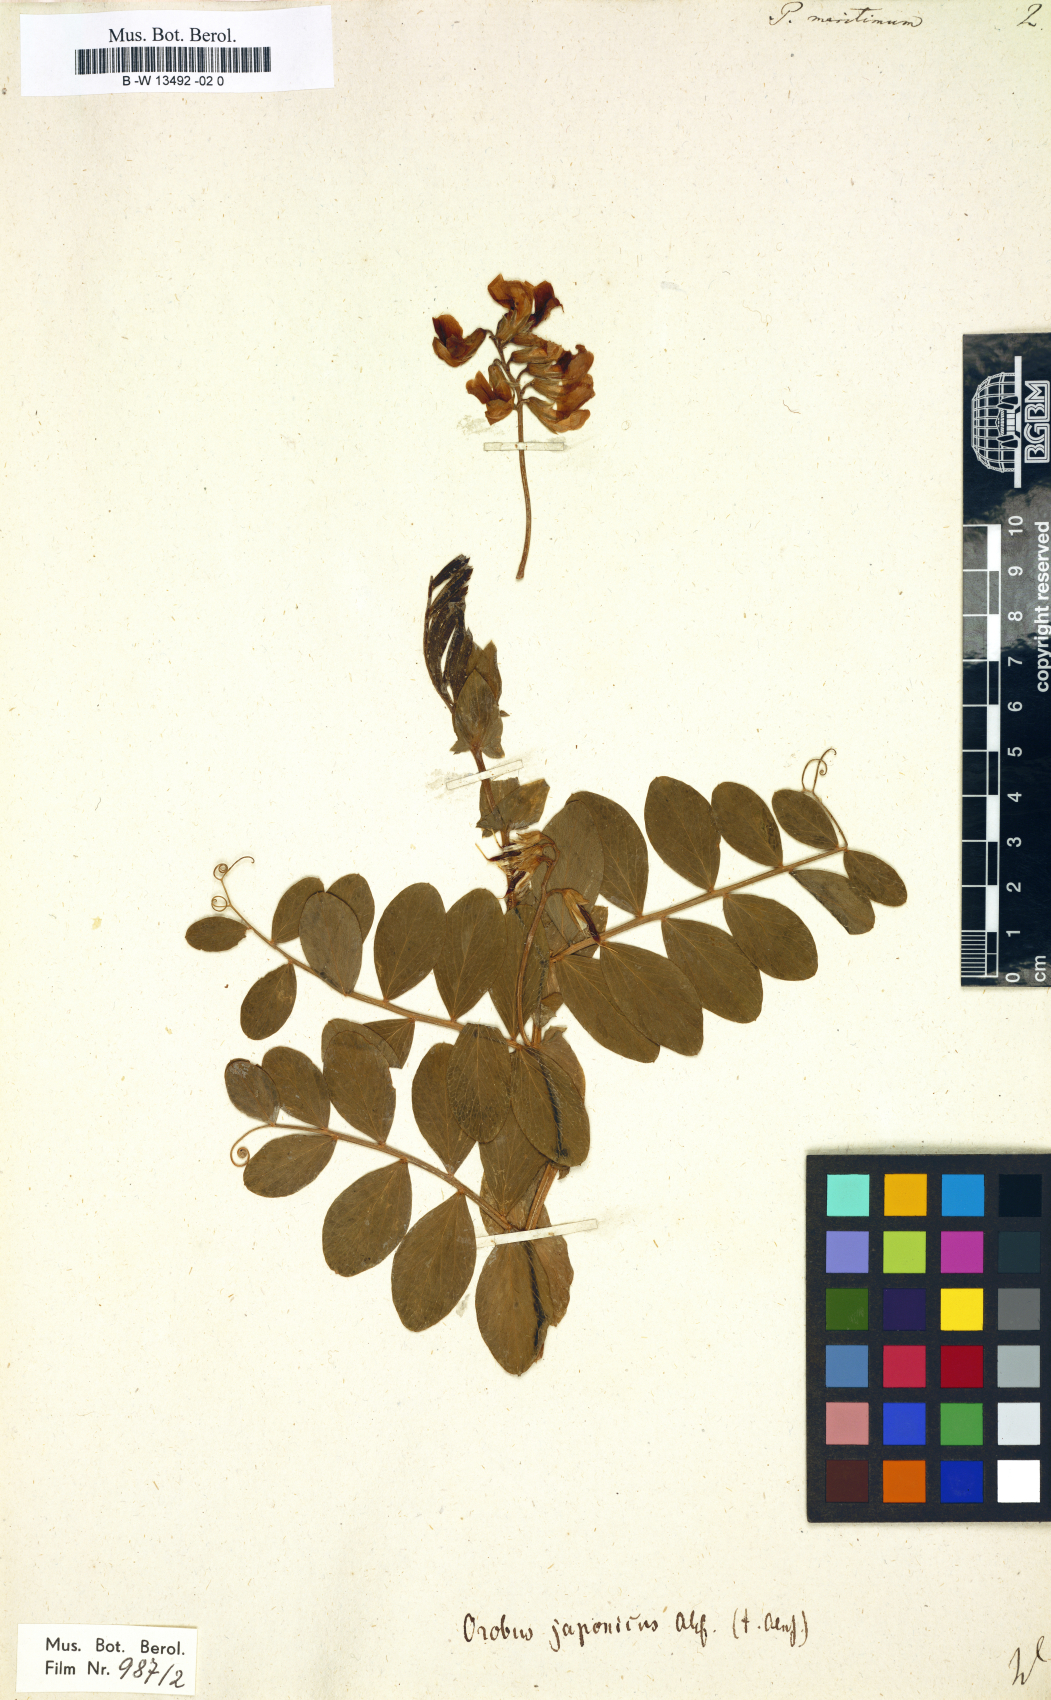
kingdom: Plantae
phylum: Tracheophyta
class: Magnoliopsida
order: Fabales
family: Fabaceae
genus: Lathyrus
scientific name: Lathyrus japonicus
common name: Sea pea
